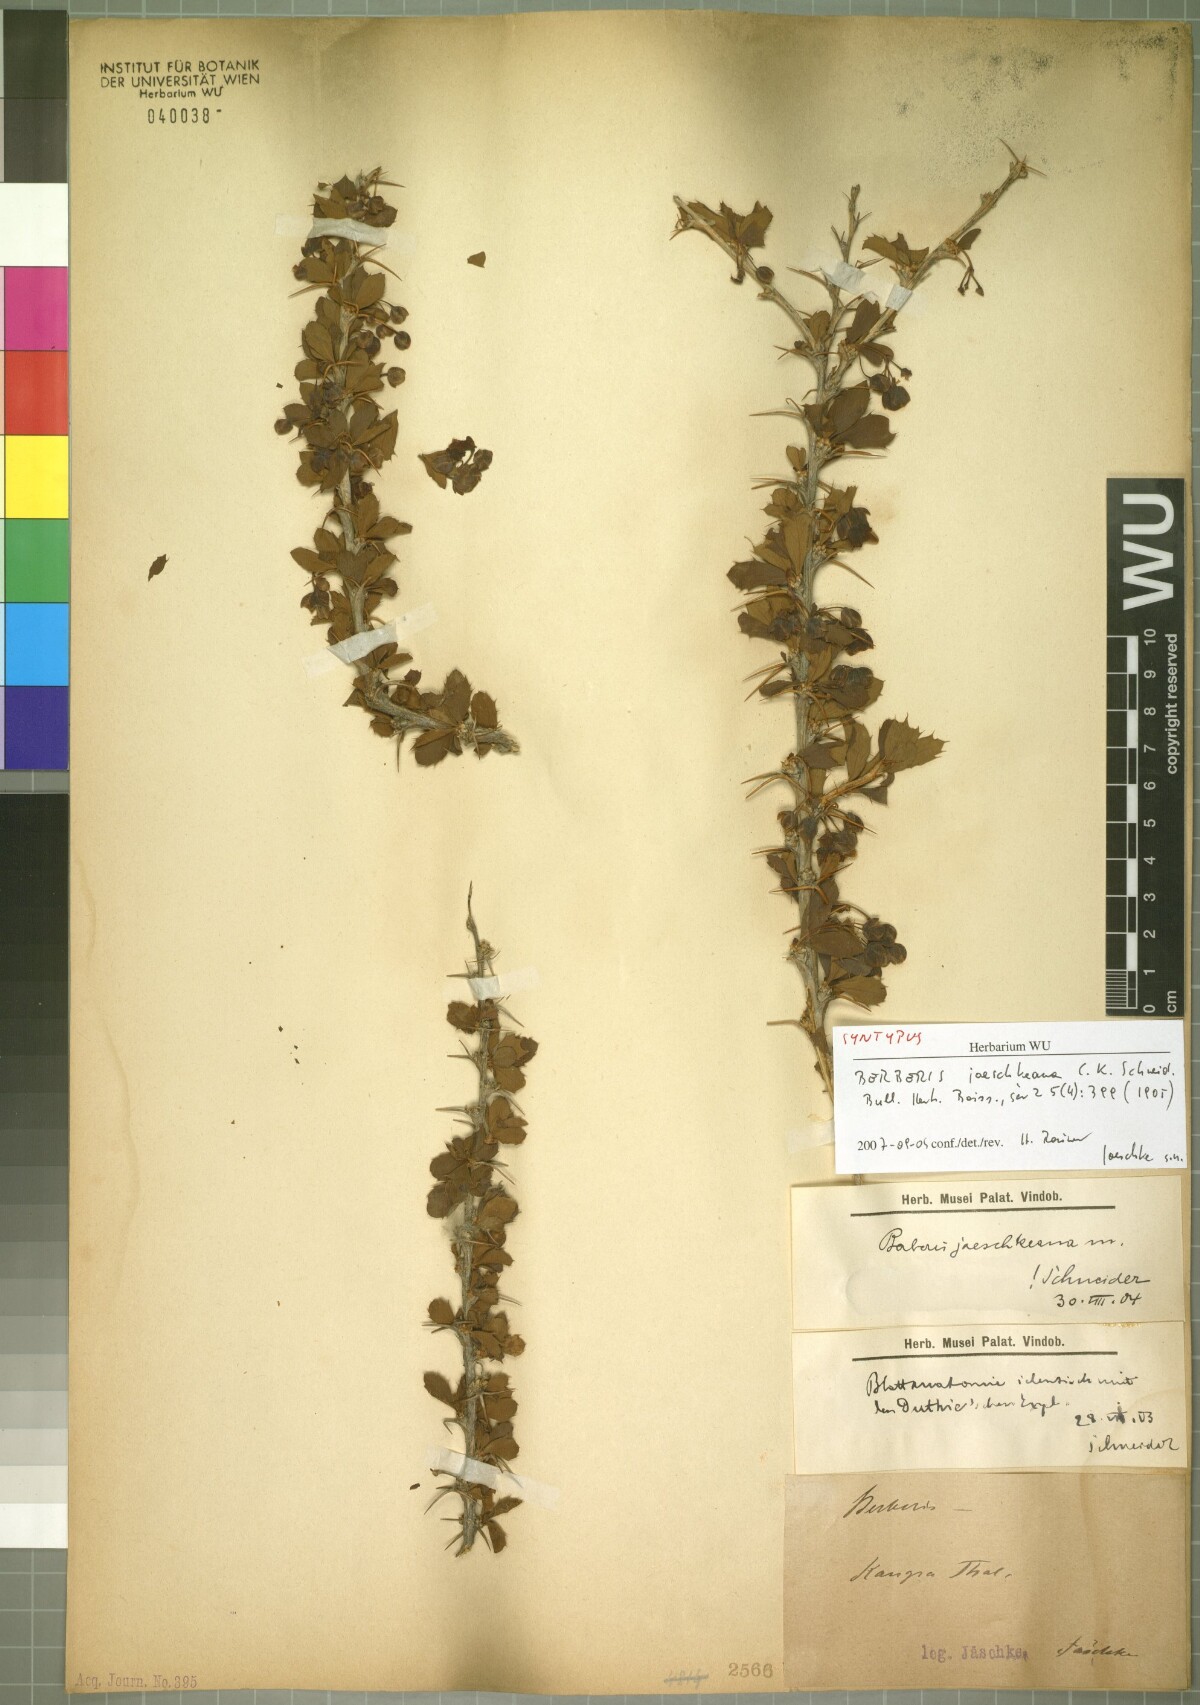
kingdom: Plantae
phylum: Tracheophyta
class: Magnoliopsida
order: Ranunculales
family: Berberidaceae
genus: Berberis
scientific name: Berberis jaeschkeana
